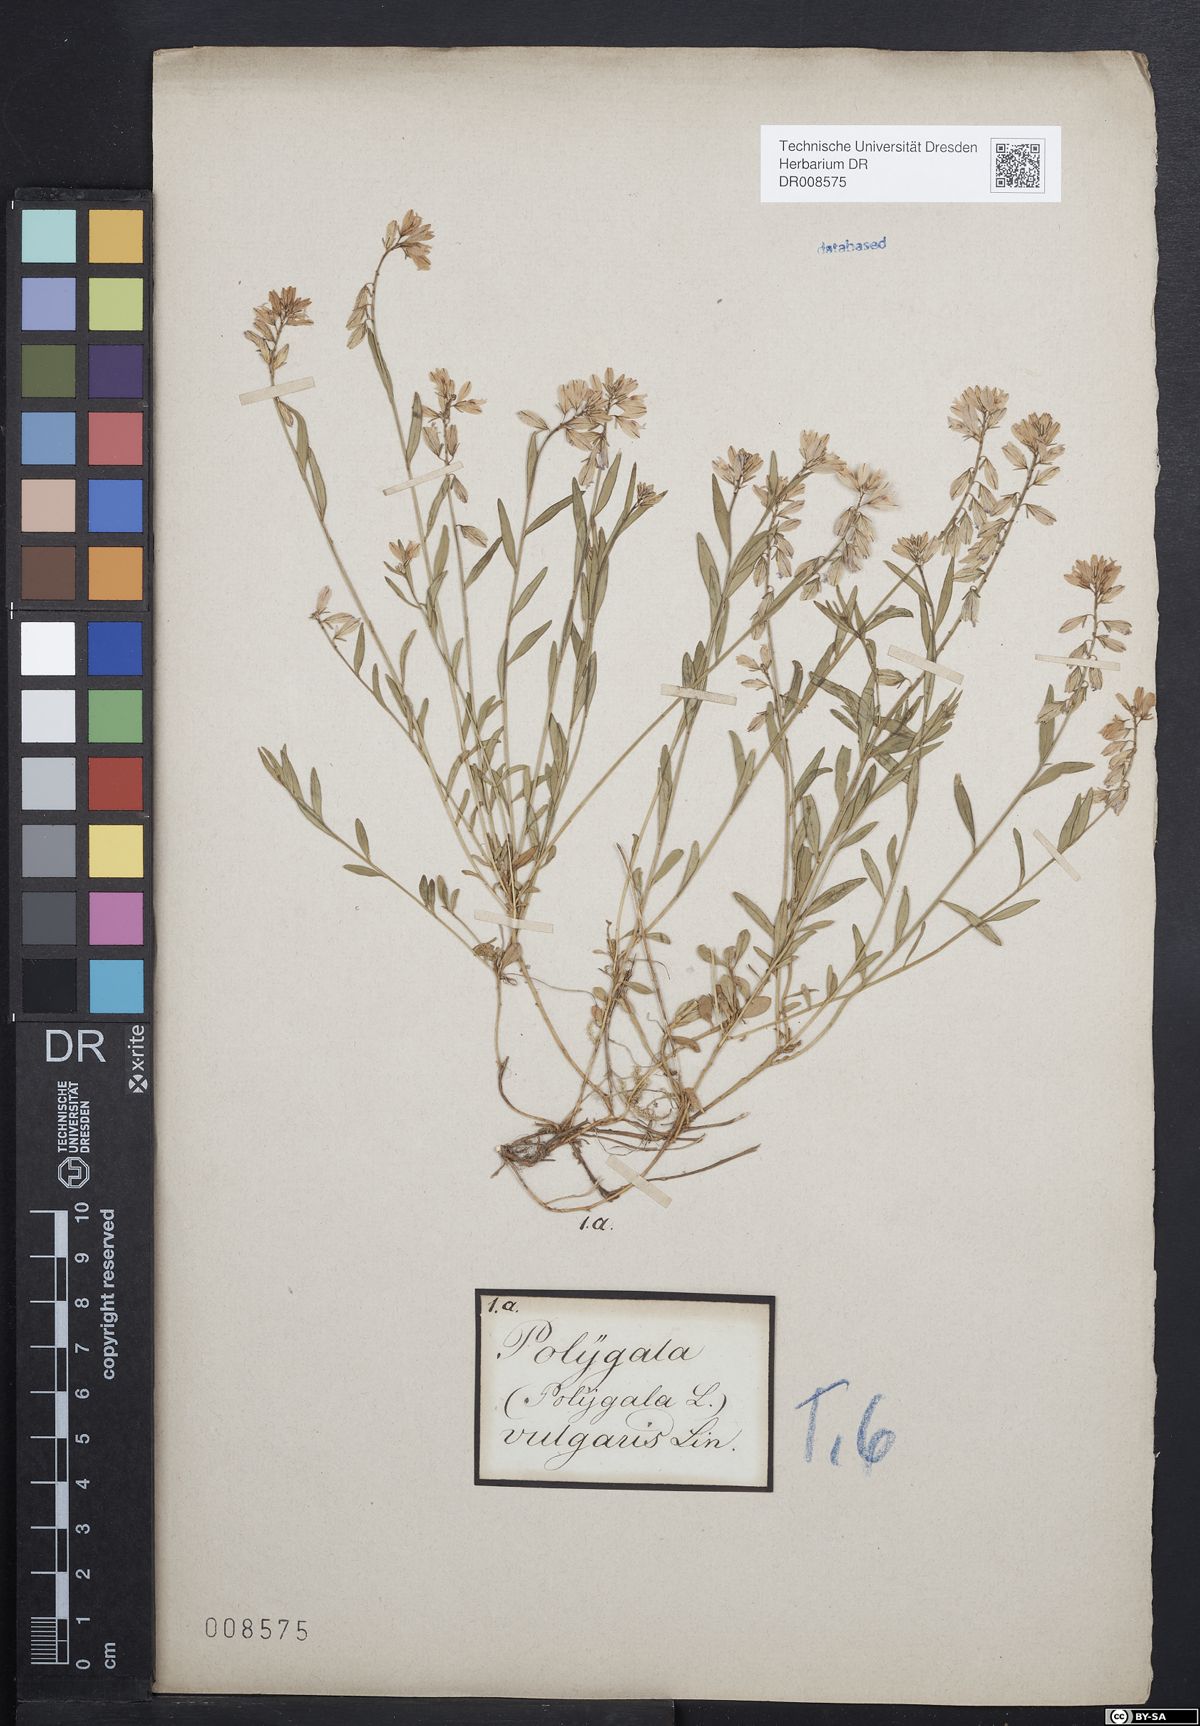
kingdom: Plantae
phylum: Tracheophyta
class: Magnoliopsida
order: Fabales
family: Polygalaceae
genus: Polygala
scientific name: Polygala vulgaris
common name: Common milkwort
